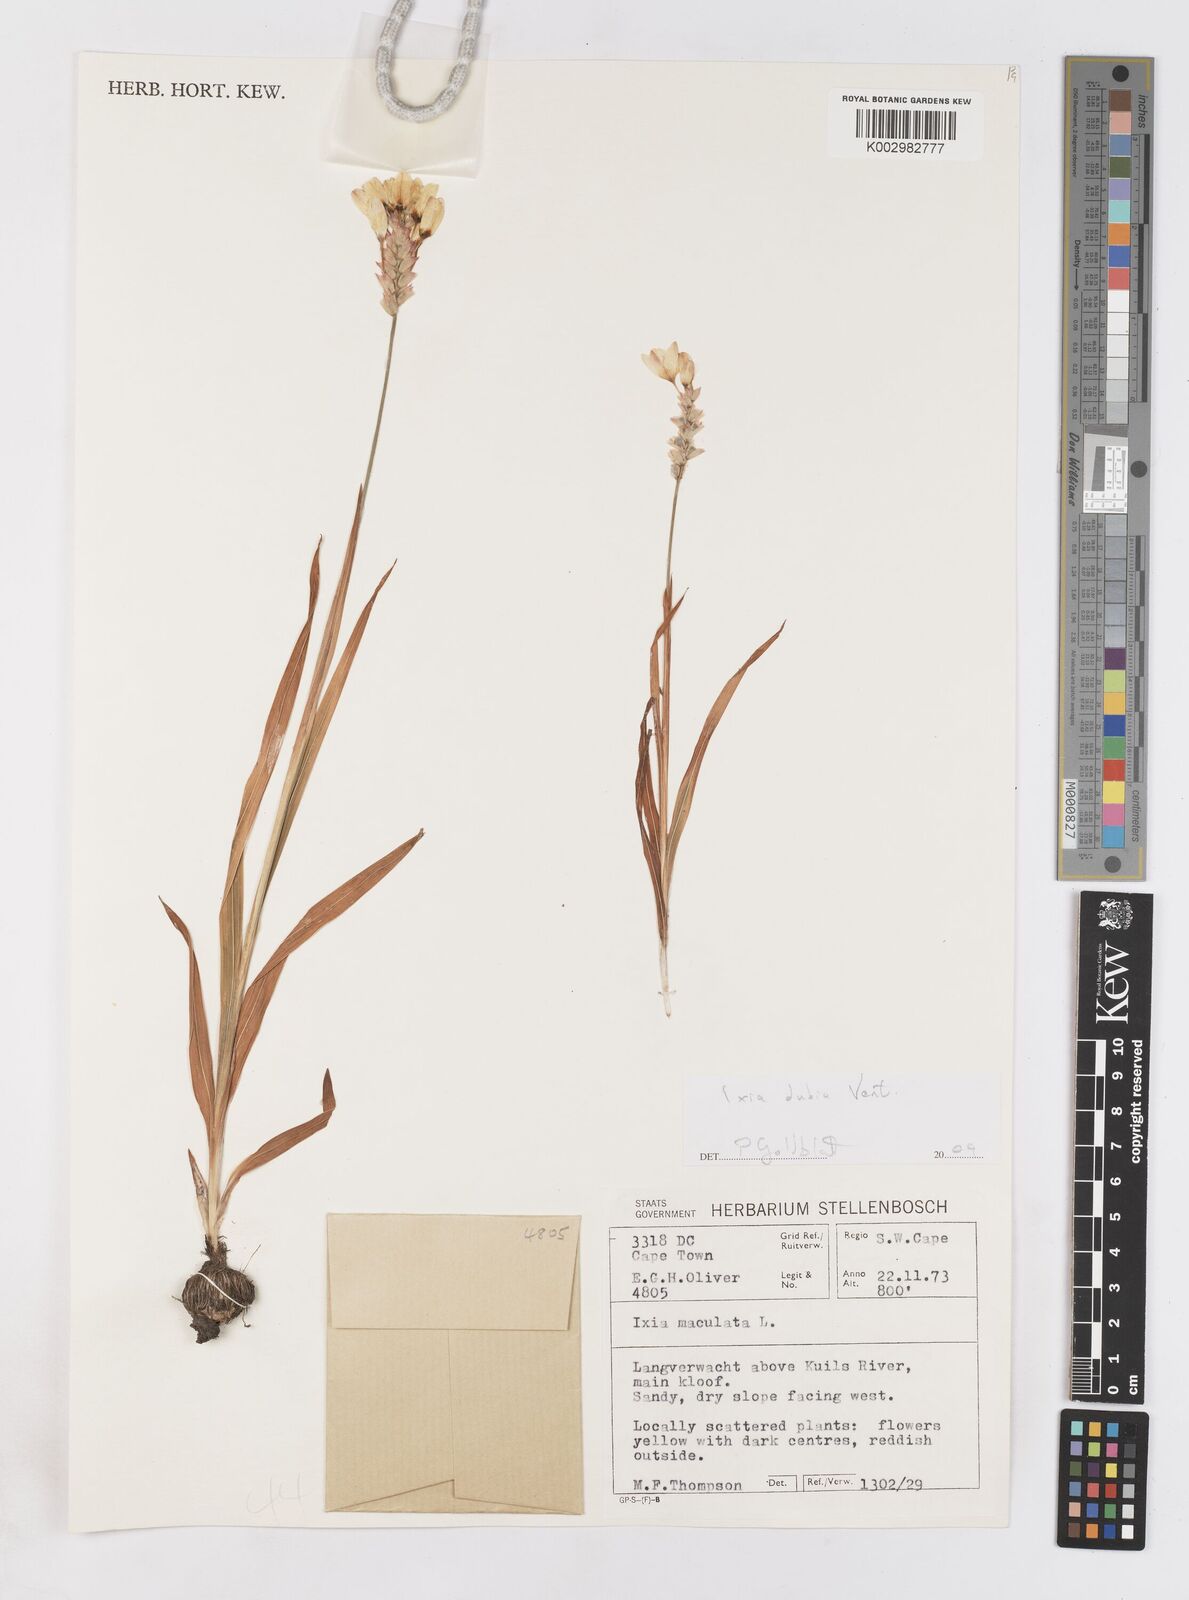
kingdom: Plantae
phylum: Tracheophyta
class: Liliopsida
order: Asparagales
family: Iridaceae
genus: Ixia
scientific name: Ixia dubia
